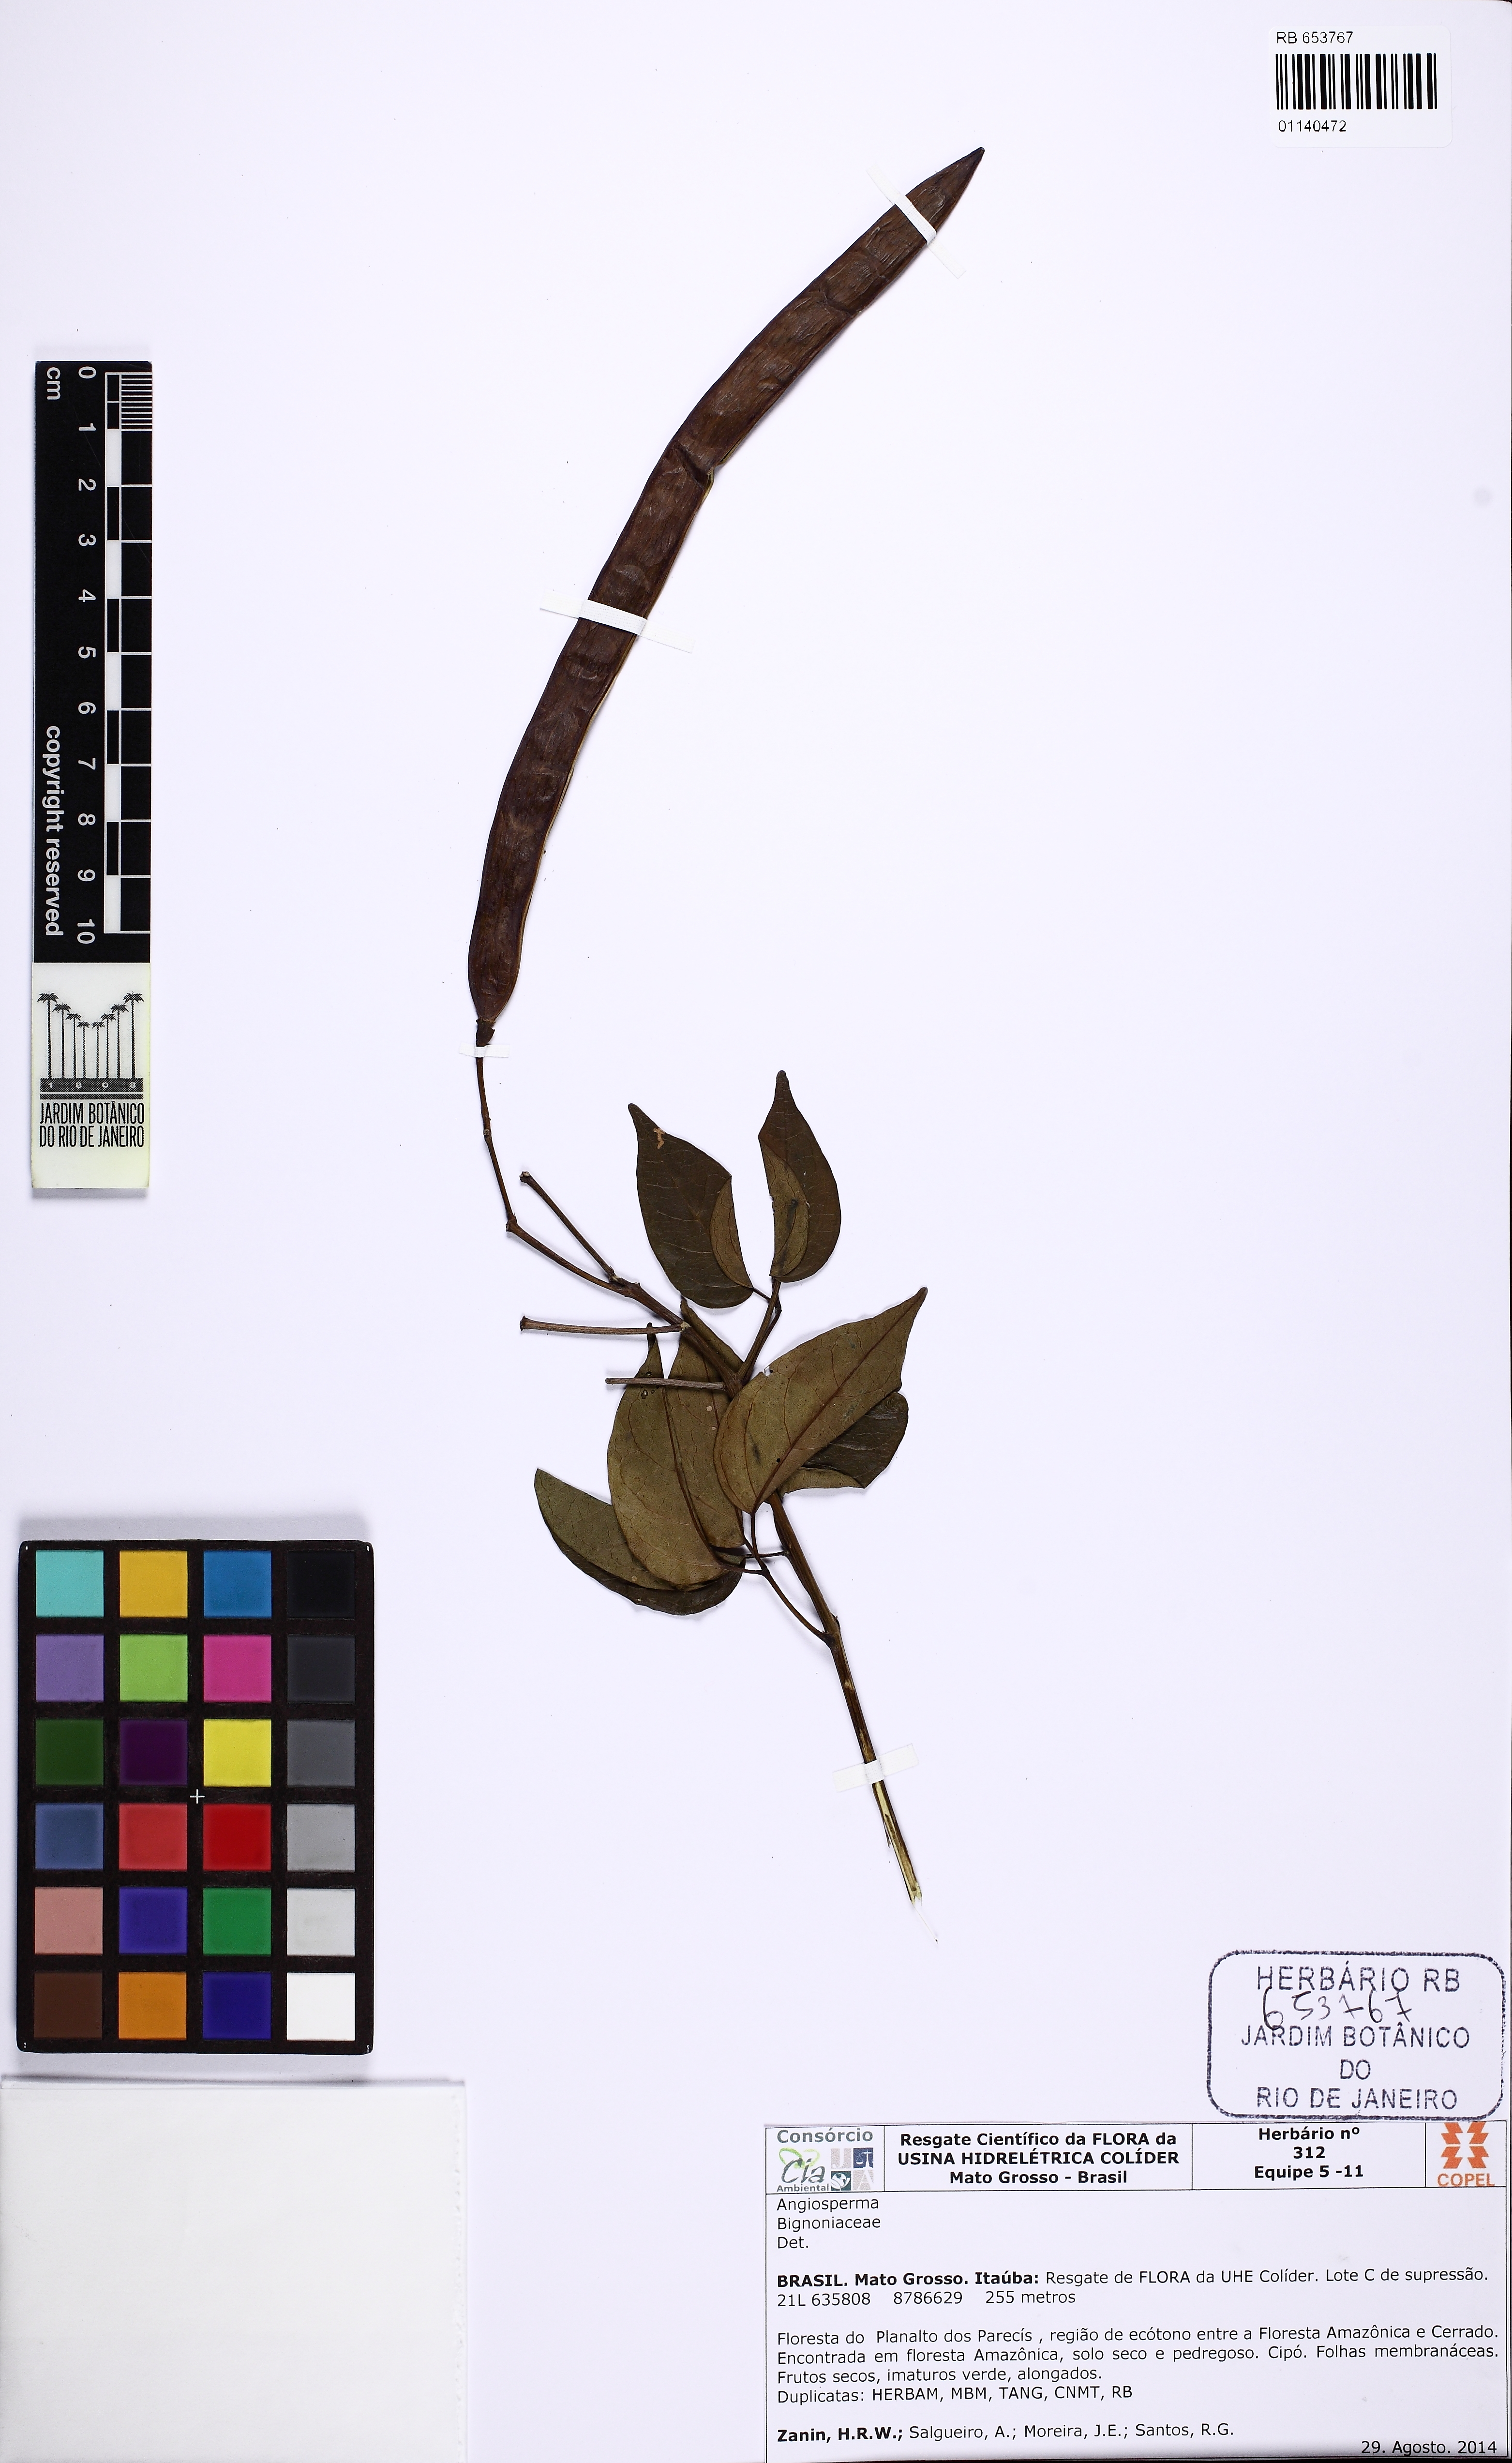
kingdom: Plantae
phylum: Tracheophyta
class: Magnoliopsida
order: Lamiales
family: Bignoniaceae
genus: Cuspidaria
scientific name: Cuspidaria
